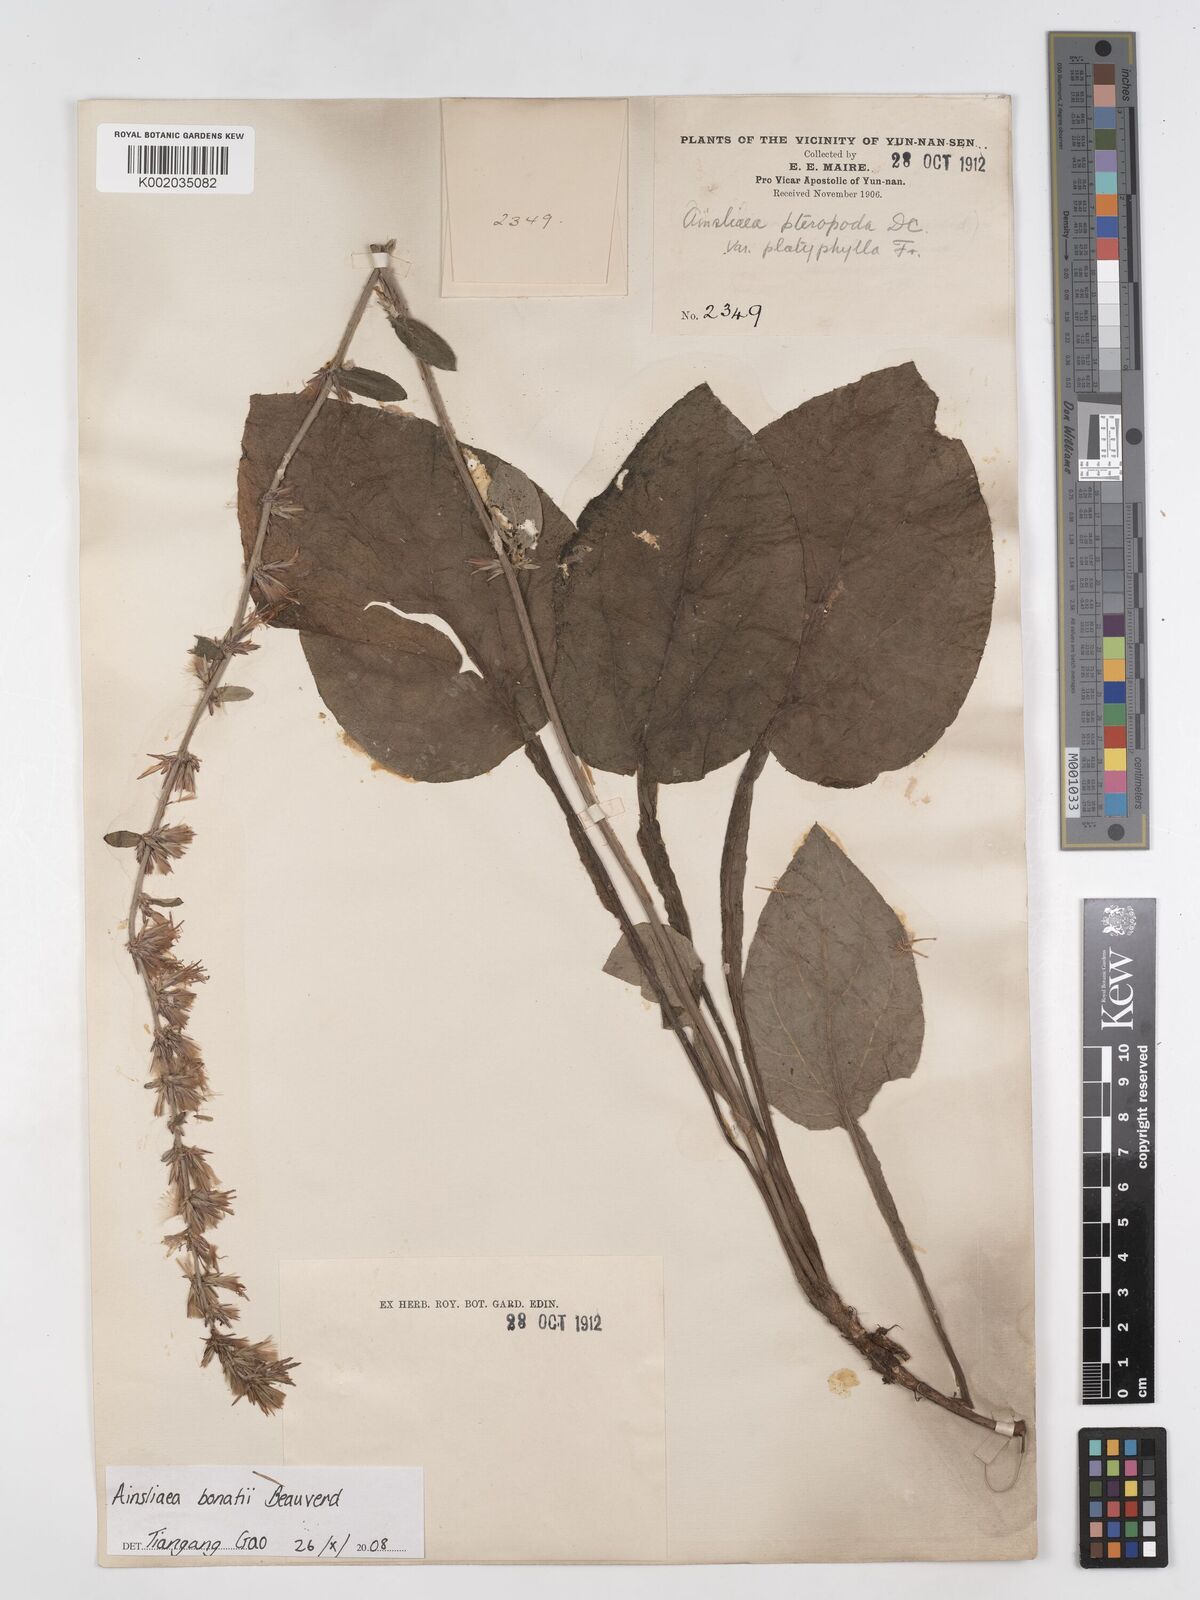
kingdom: Plantae
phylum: Tracheophyta
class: Magnoliopsida
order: Asterales
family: Asteraceae
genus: Ainsliaea
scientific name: Ainsliaea bonatii
